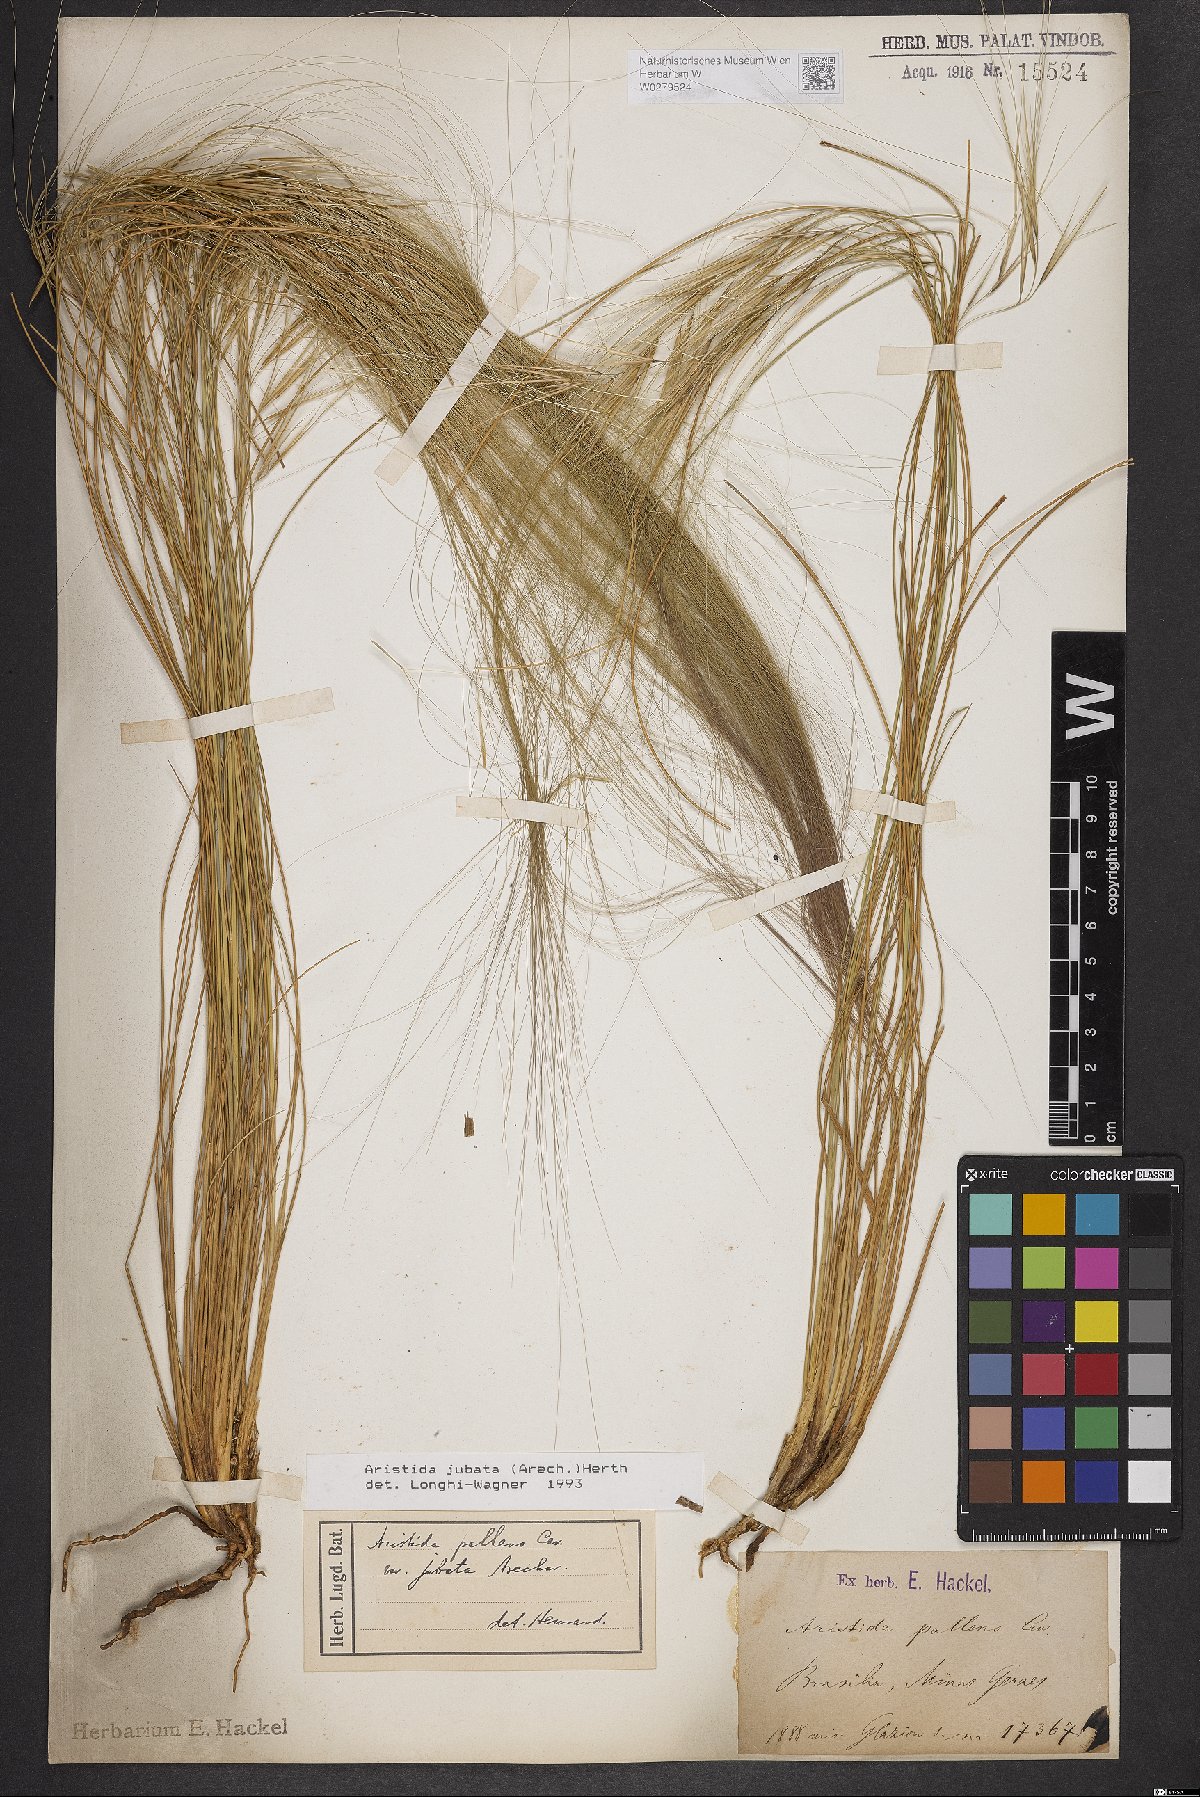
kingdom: Plantae
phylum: Tracheophyta
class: Liliopsida
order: Poales
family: Poaceae
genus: Aristida
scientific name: Aristida jubata
